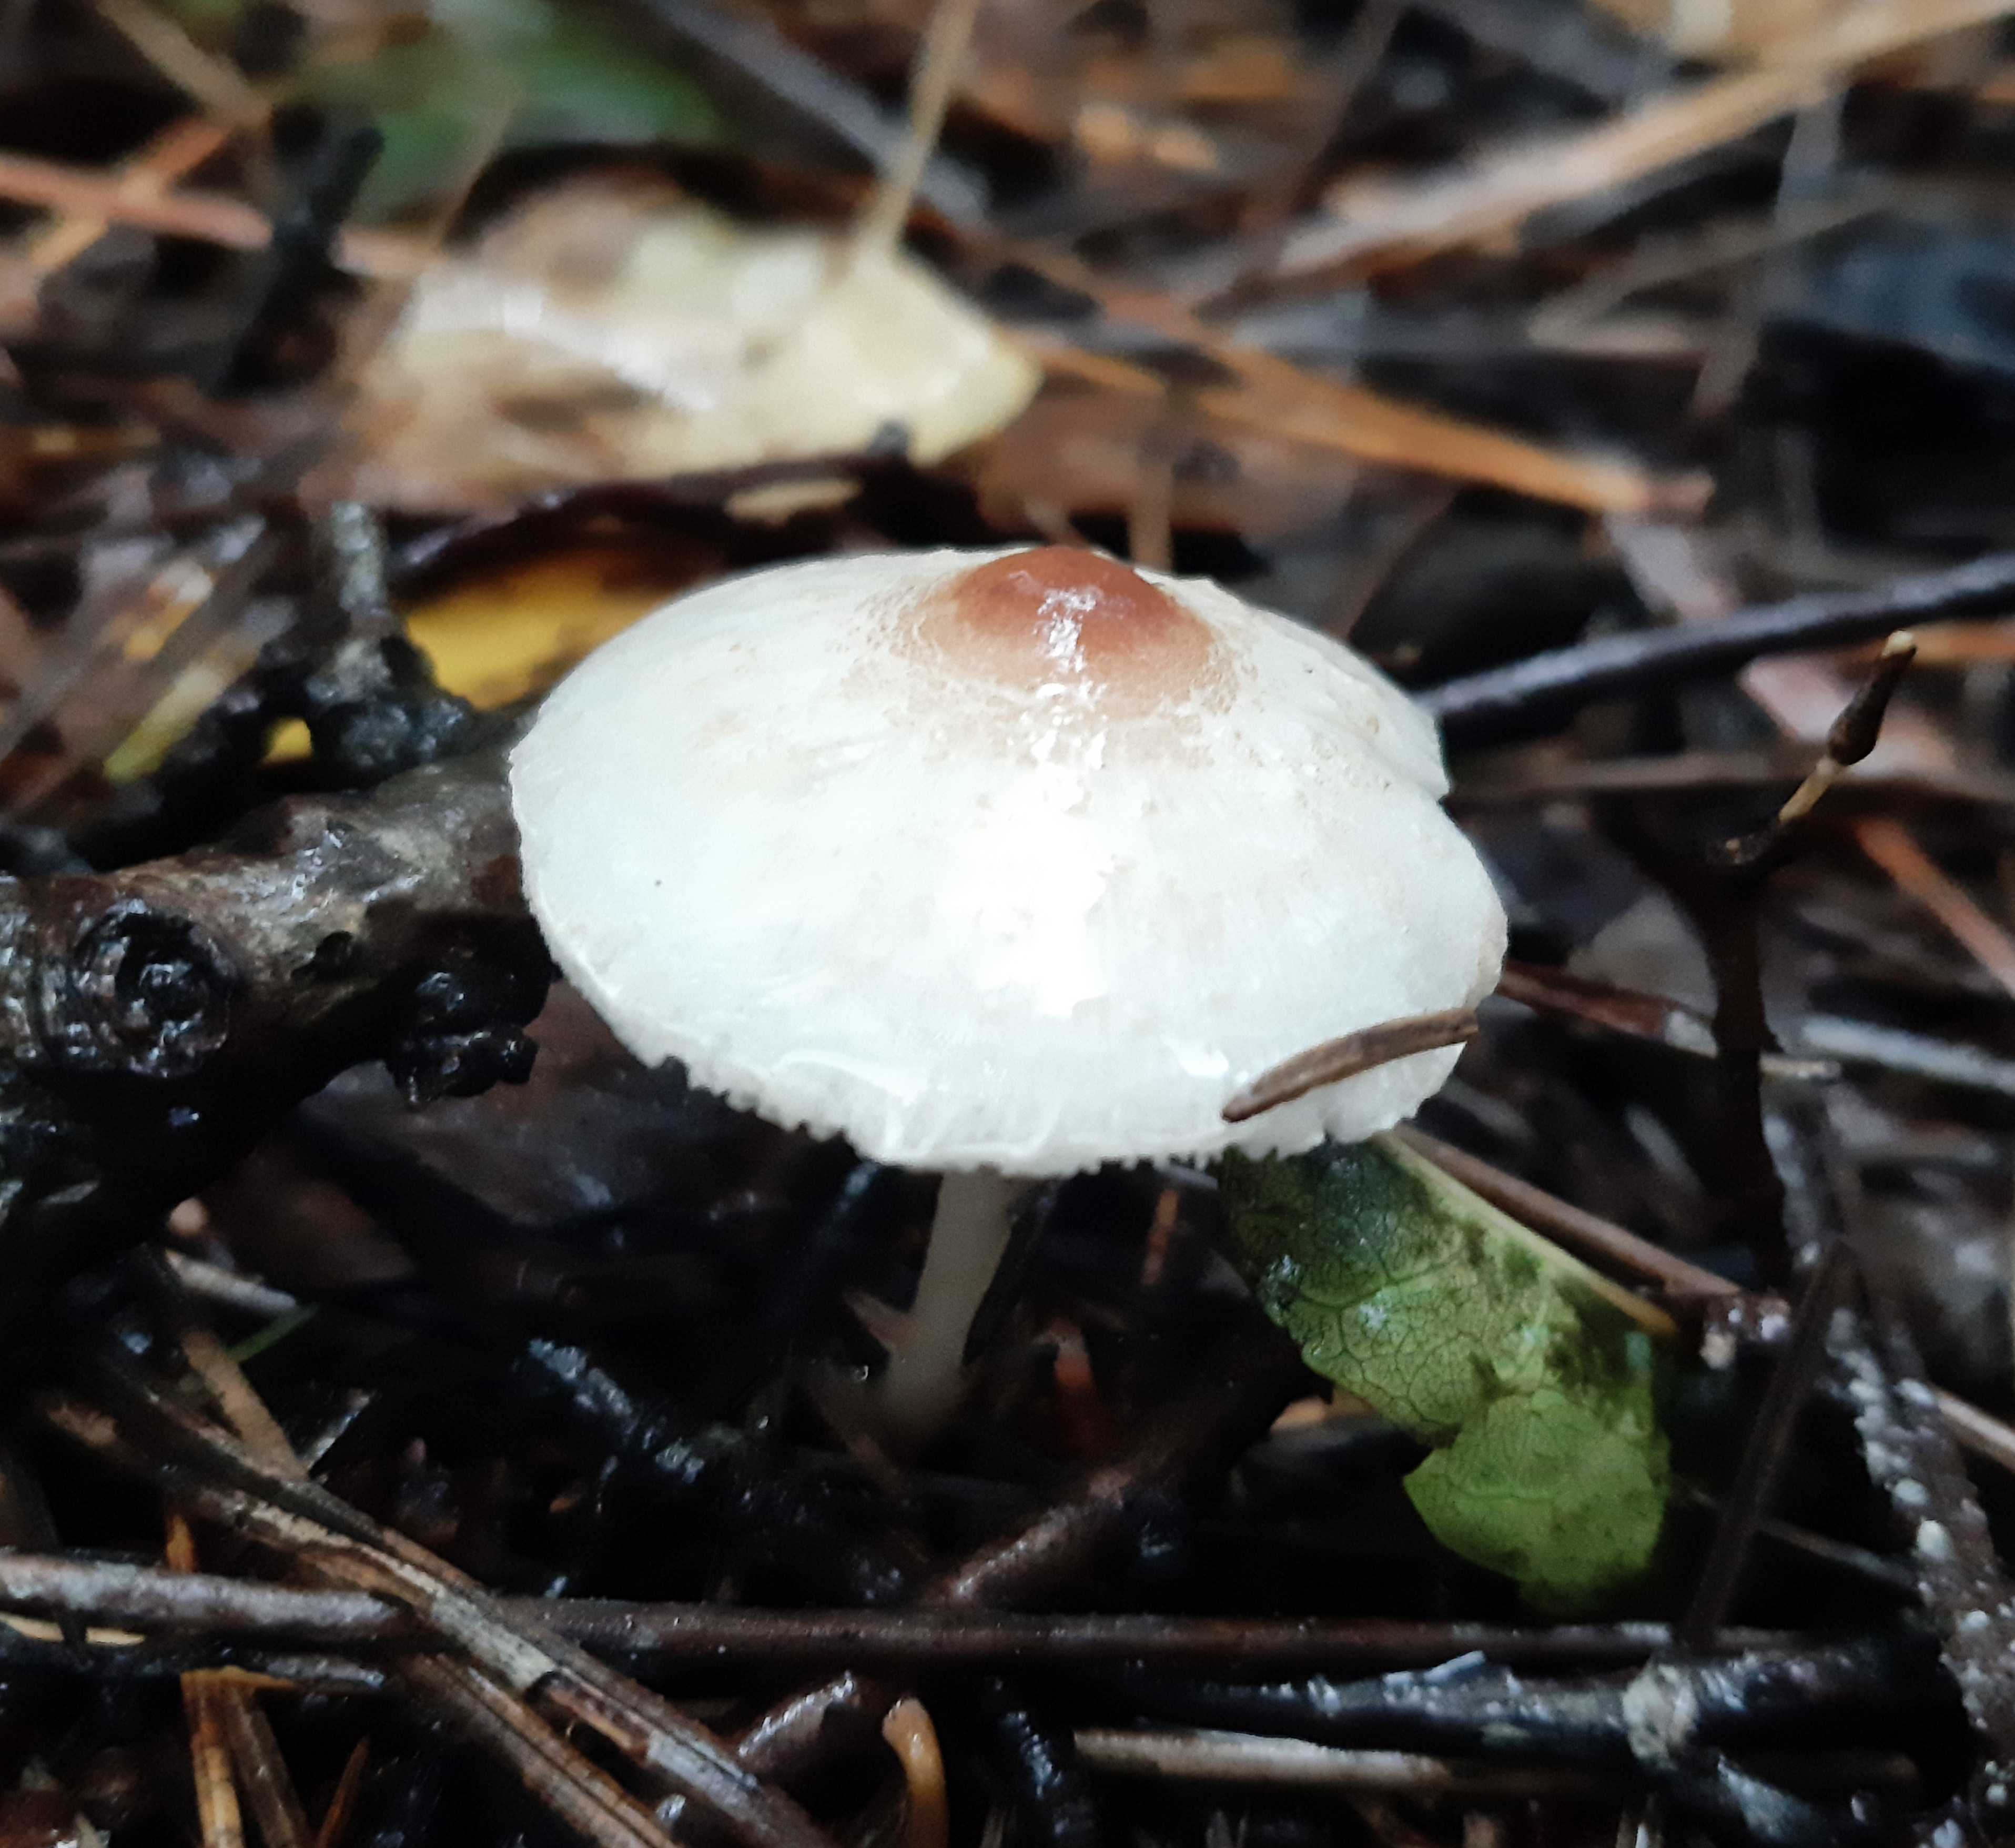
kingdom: Fungi
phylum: Basidiomycota
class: Agaricomycetes
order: Agaricales
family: Agaricaceae
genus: Lepiota
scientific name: Lepiota cristata
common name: stinkende parasolhat
